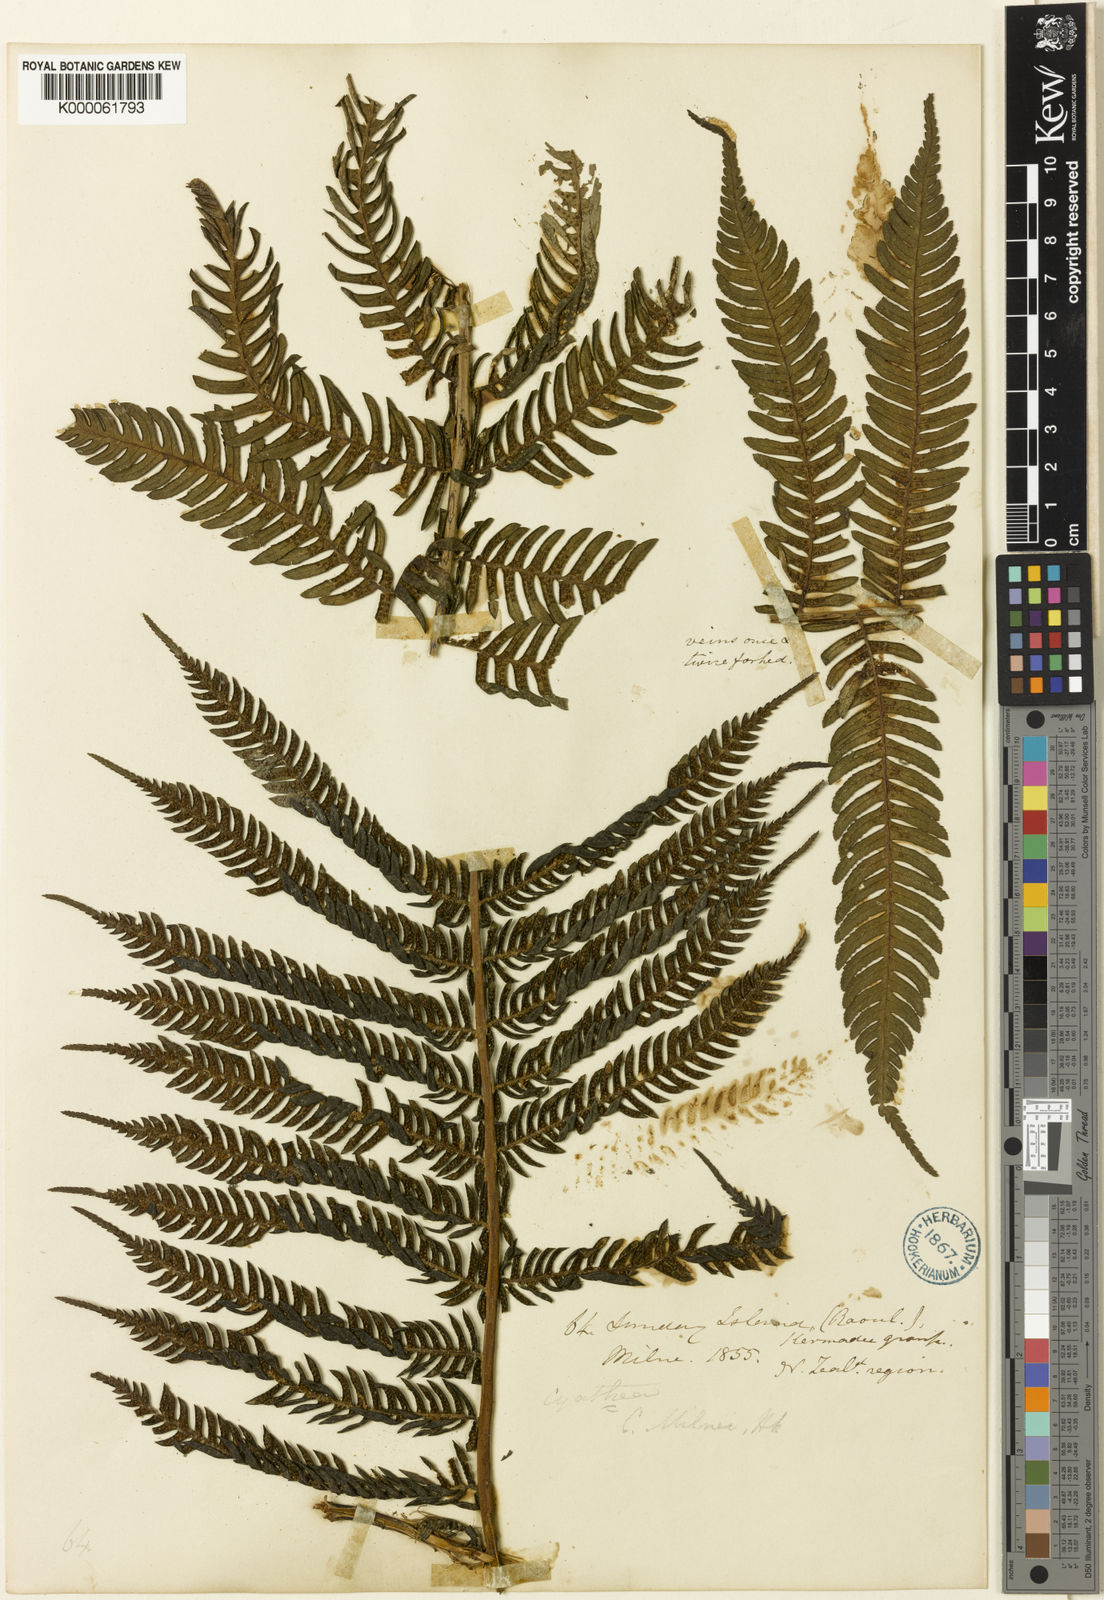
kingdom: Plantae
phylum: Tracheophyta
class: Polypodiopsida
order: Cyatheales
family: Cyatheaceae
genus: Alsophila
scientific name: Alsophila milnei
